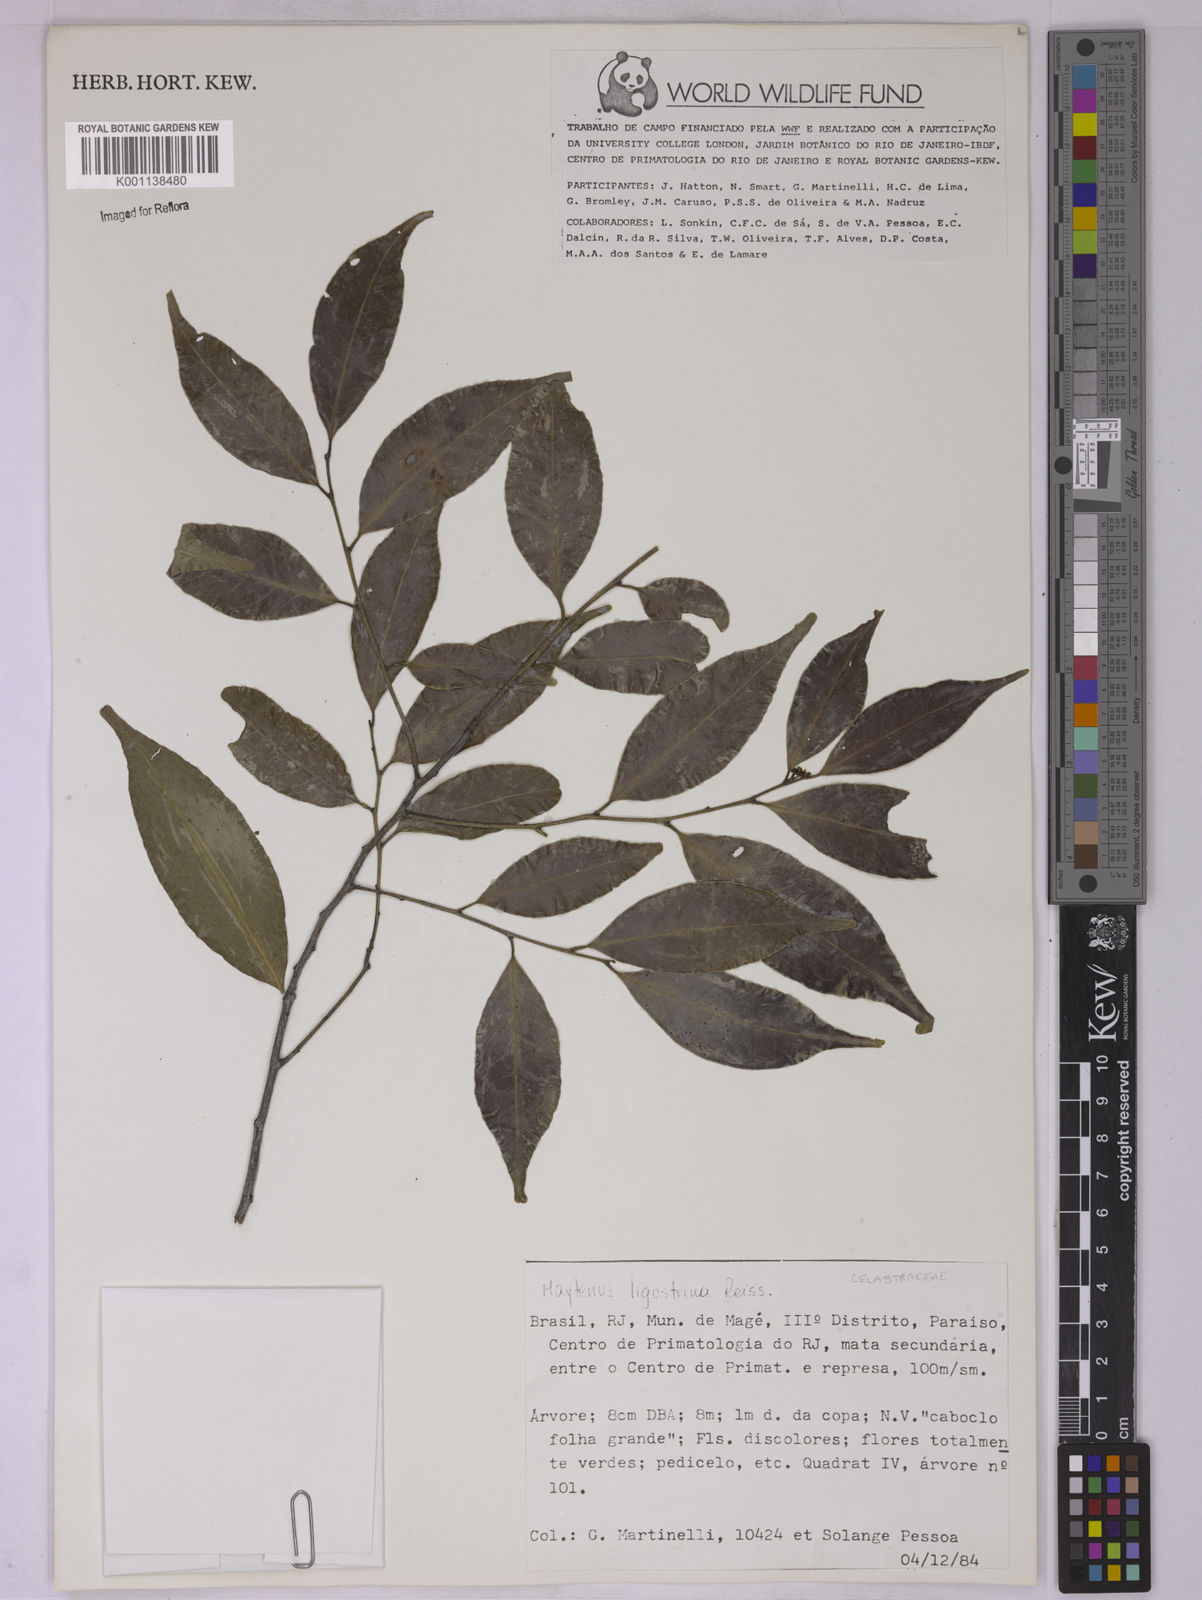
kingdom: Plantae
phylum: Tracheophyta
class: Magnoliopsida
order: Celastrales
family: Celastraceae
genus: Monteverdia
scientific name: Monteverdia brasiliensis
